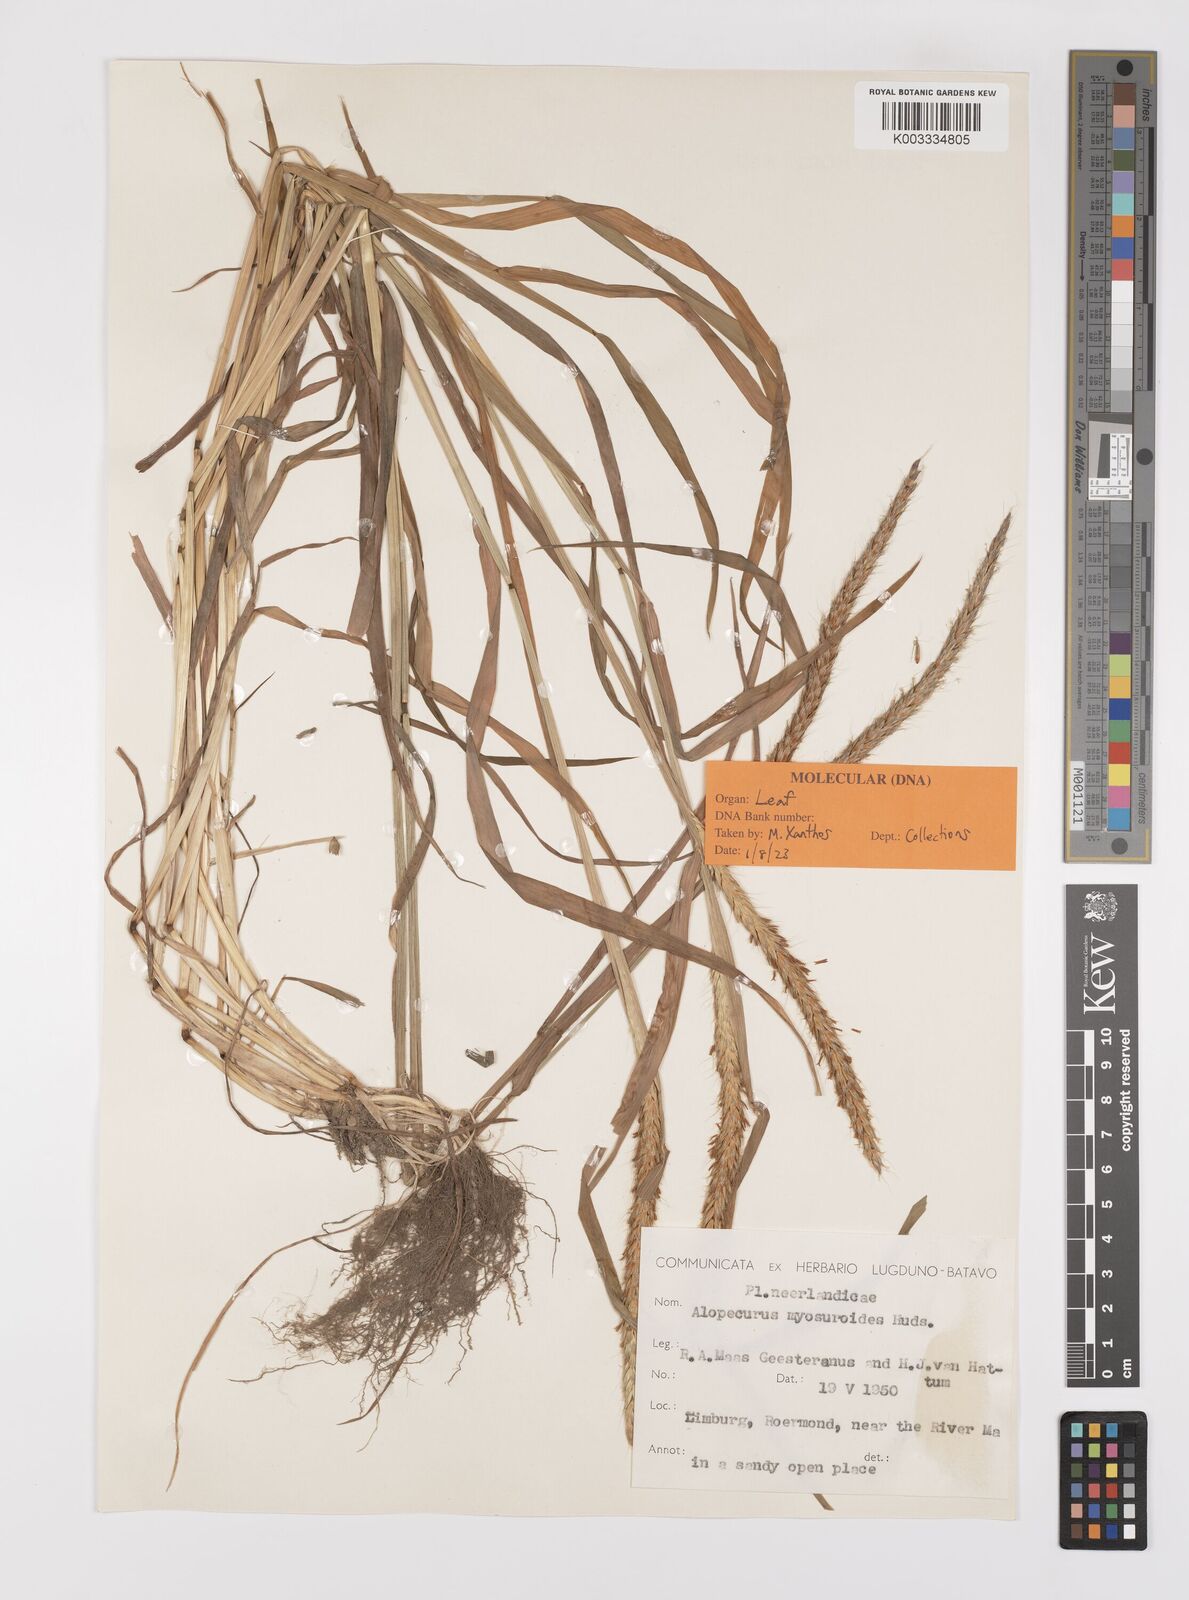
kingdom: Plantae
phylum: Tracheophyta
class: Liliopsida
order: Poales
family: Poaceae
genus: Alopecurus
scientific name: Alopecurus myosuroides
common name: Black-grass
